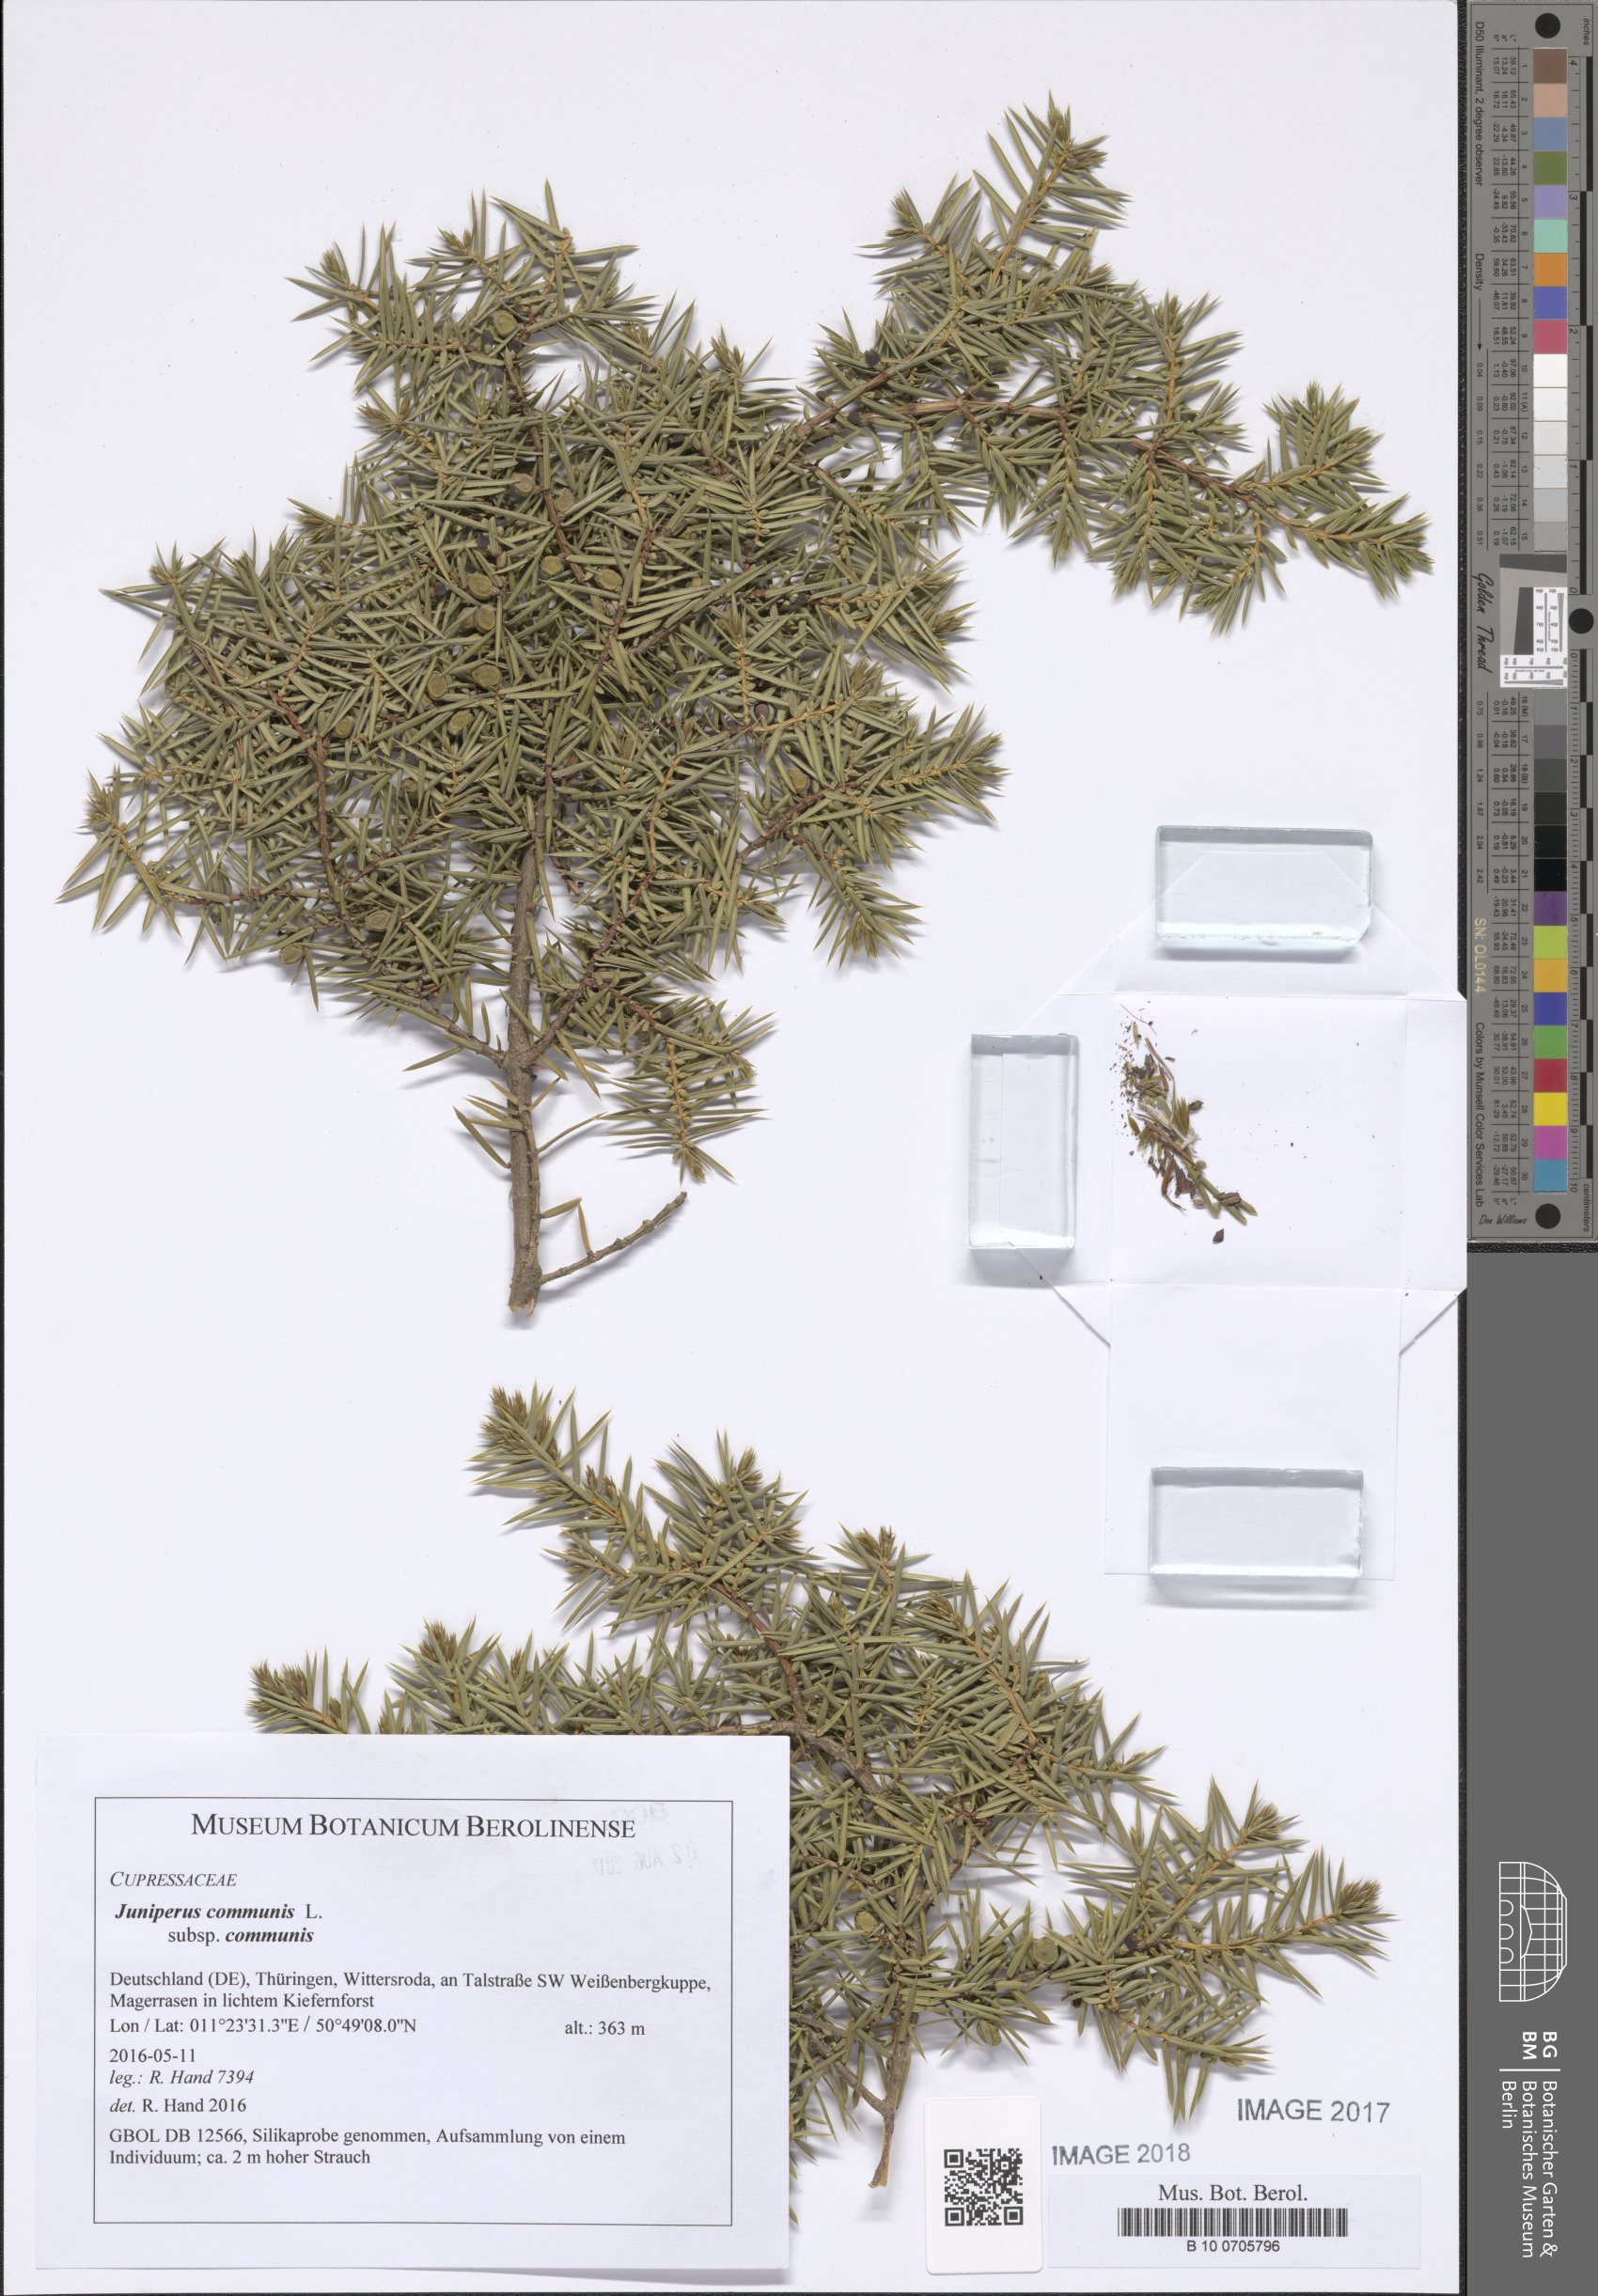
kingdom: Plantae
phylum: Tracheophyta
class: Pinopsida
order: Pinales
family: Cupressaceae
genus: Juniperus
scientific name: Juniperus communis
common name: Common juniper
